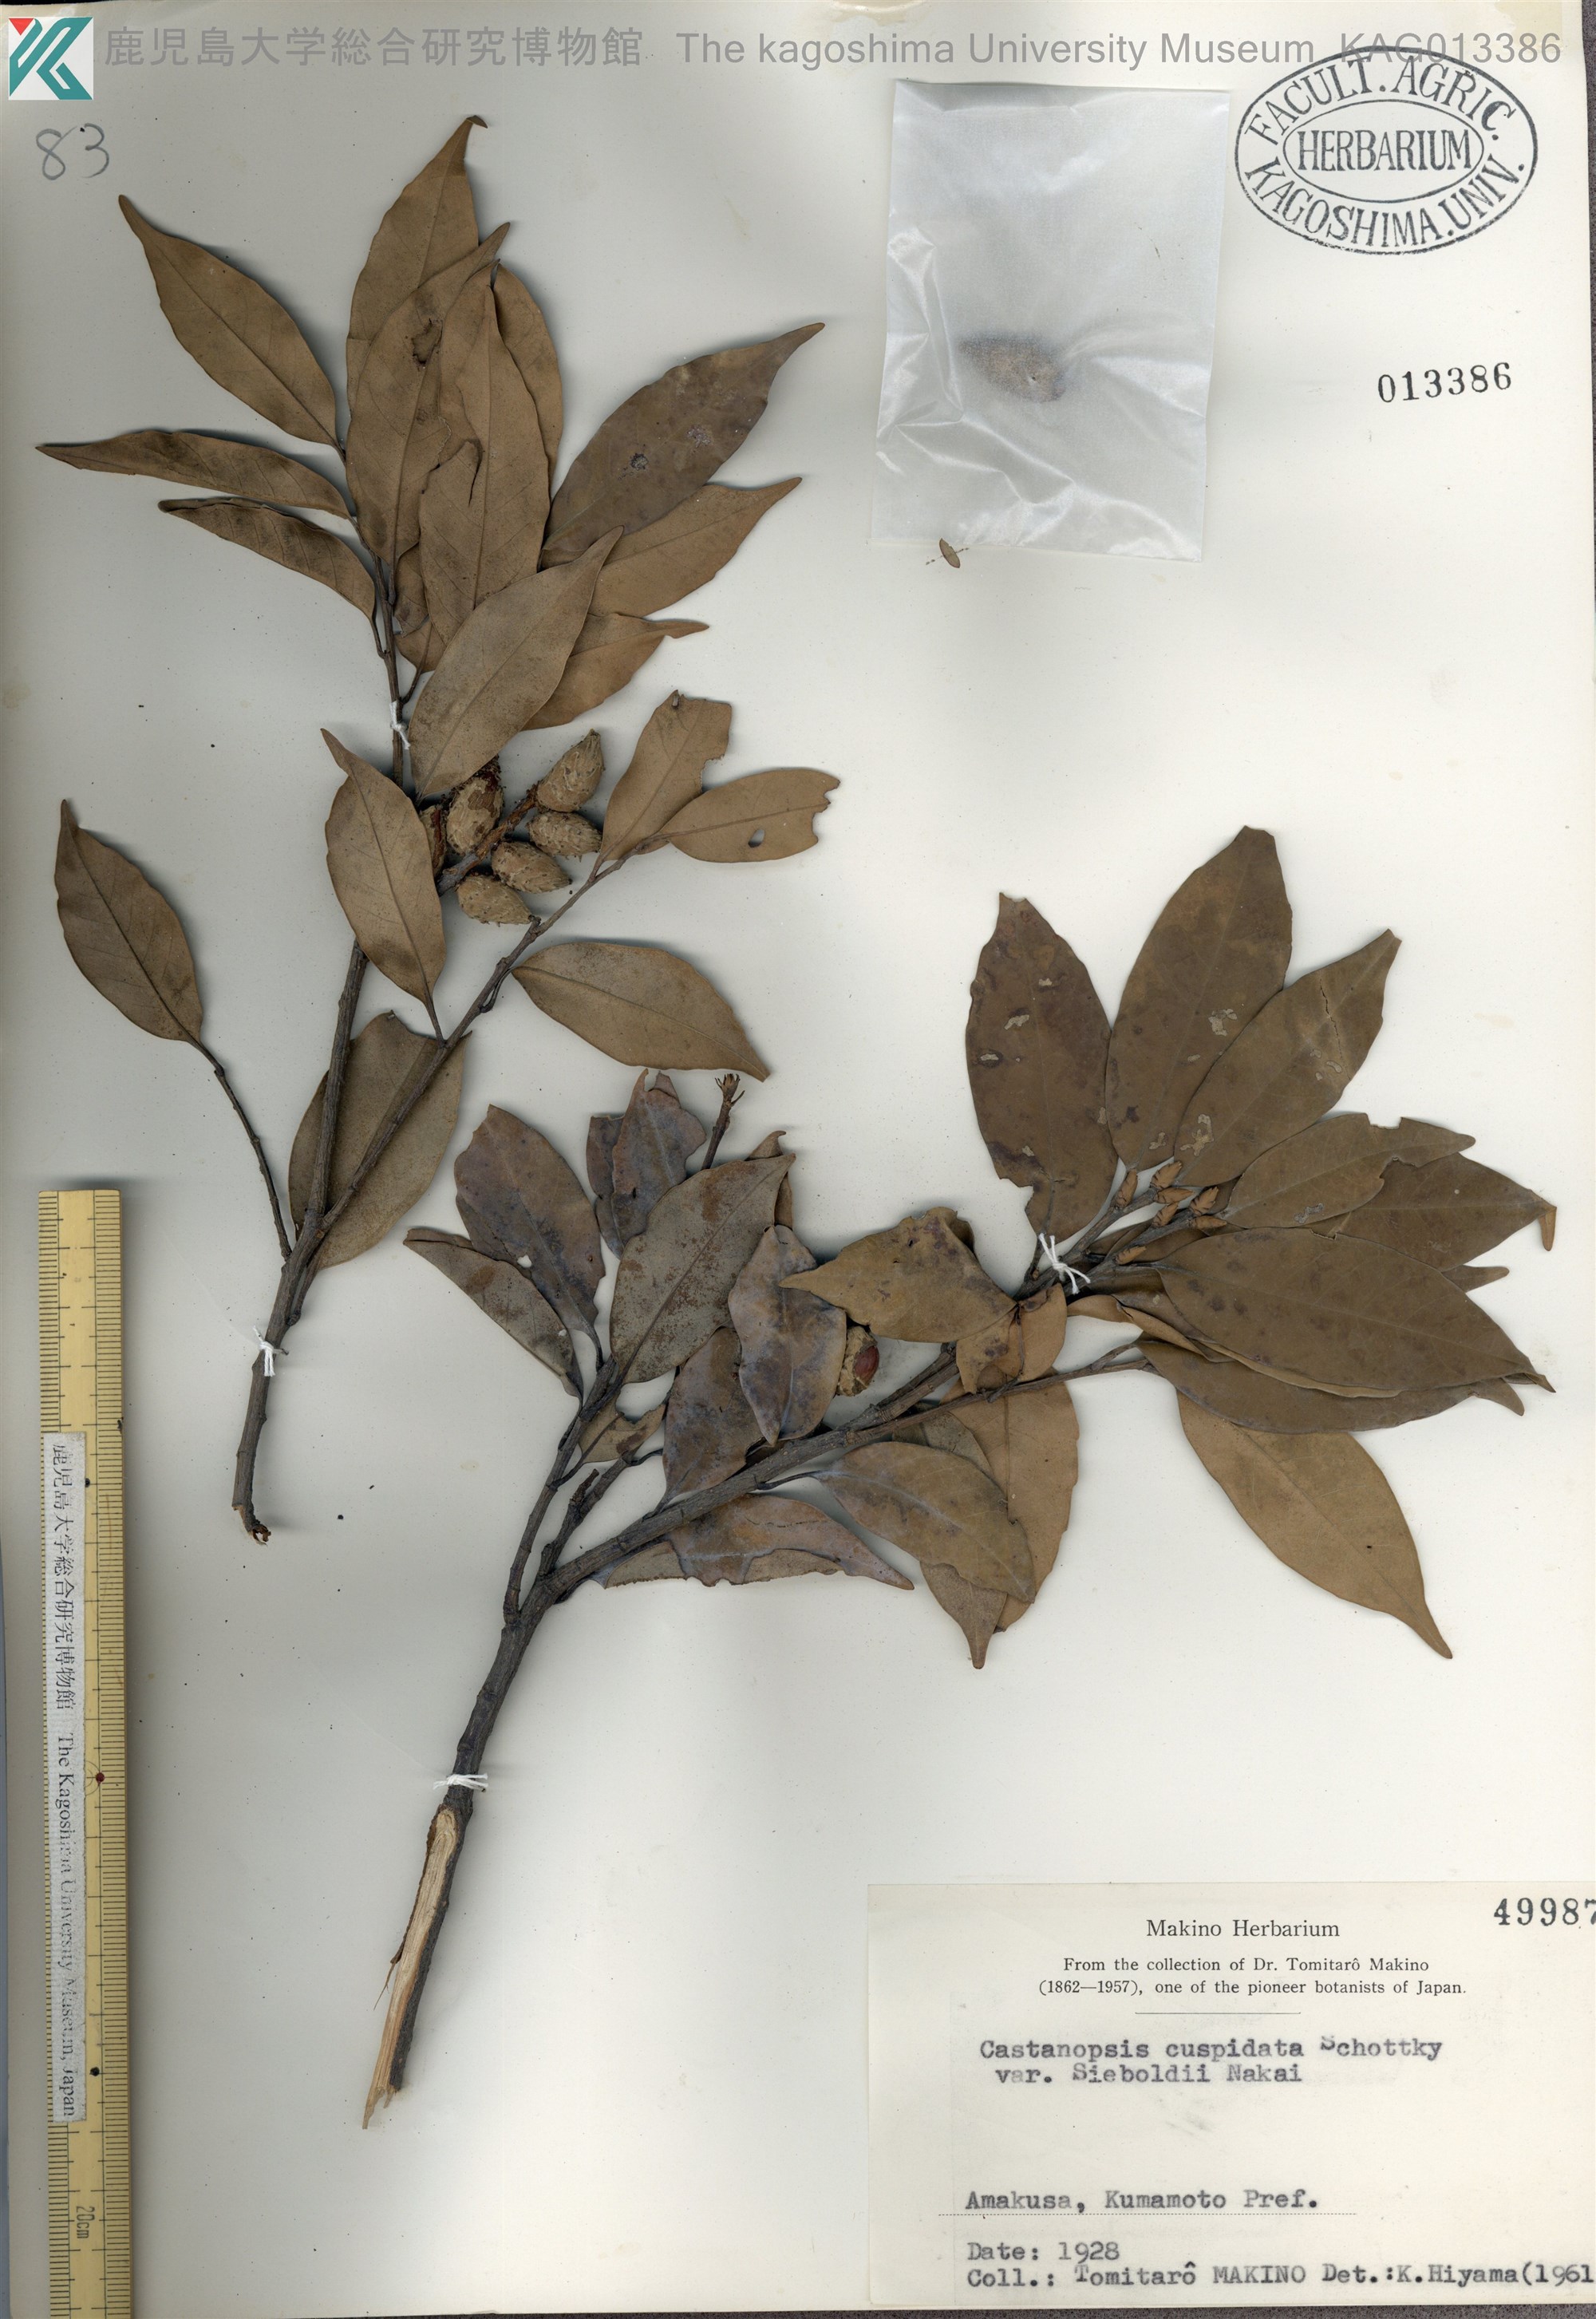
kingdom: Plantae
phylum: Tracheophyta
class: Magnoliopsida
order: Fagales
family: Fagaceae
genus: Castanopsis
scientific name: Castanopsis sieboldii
